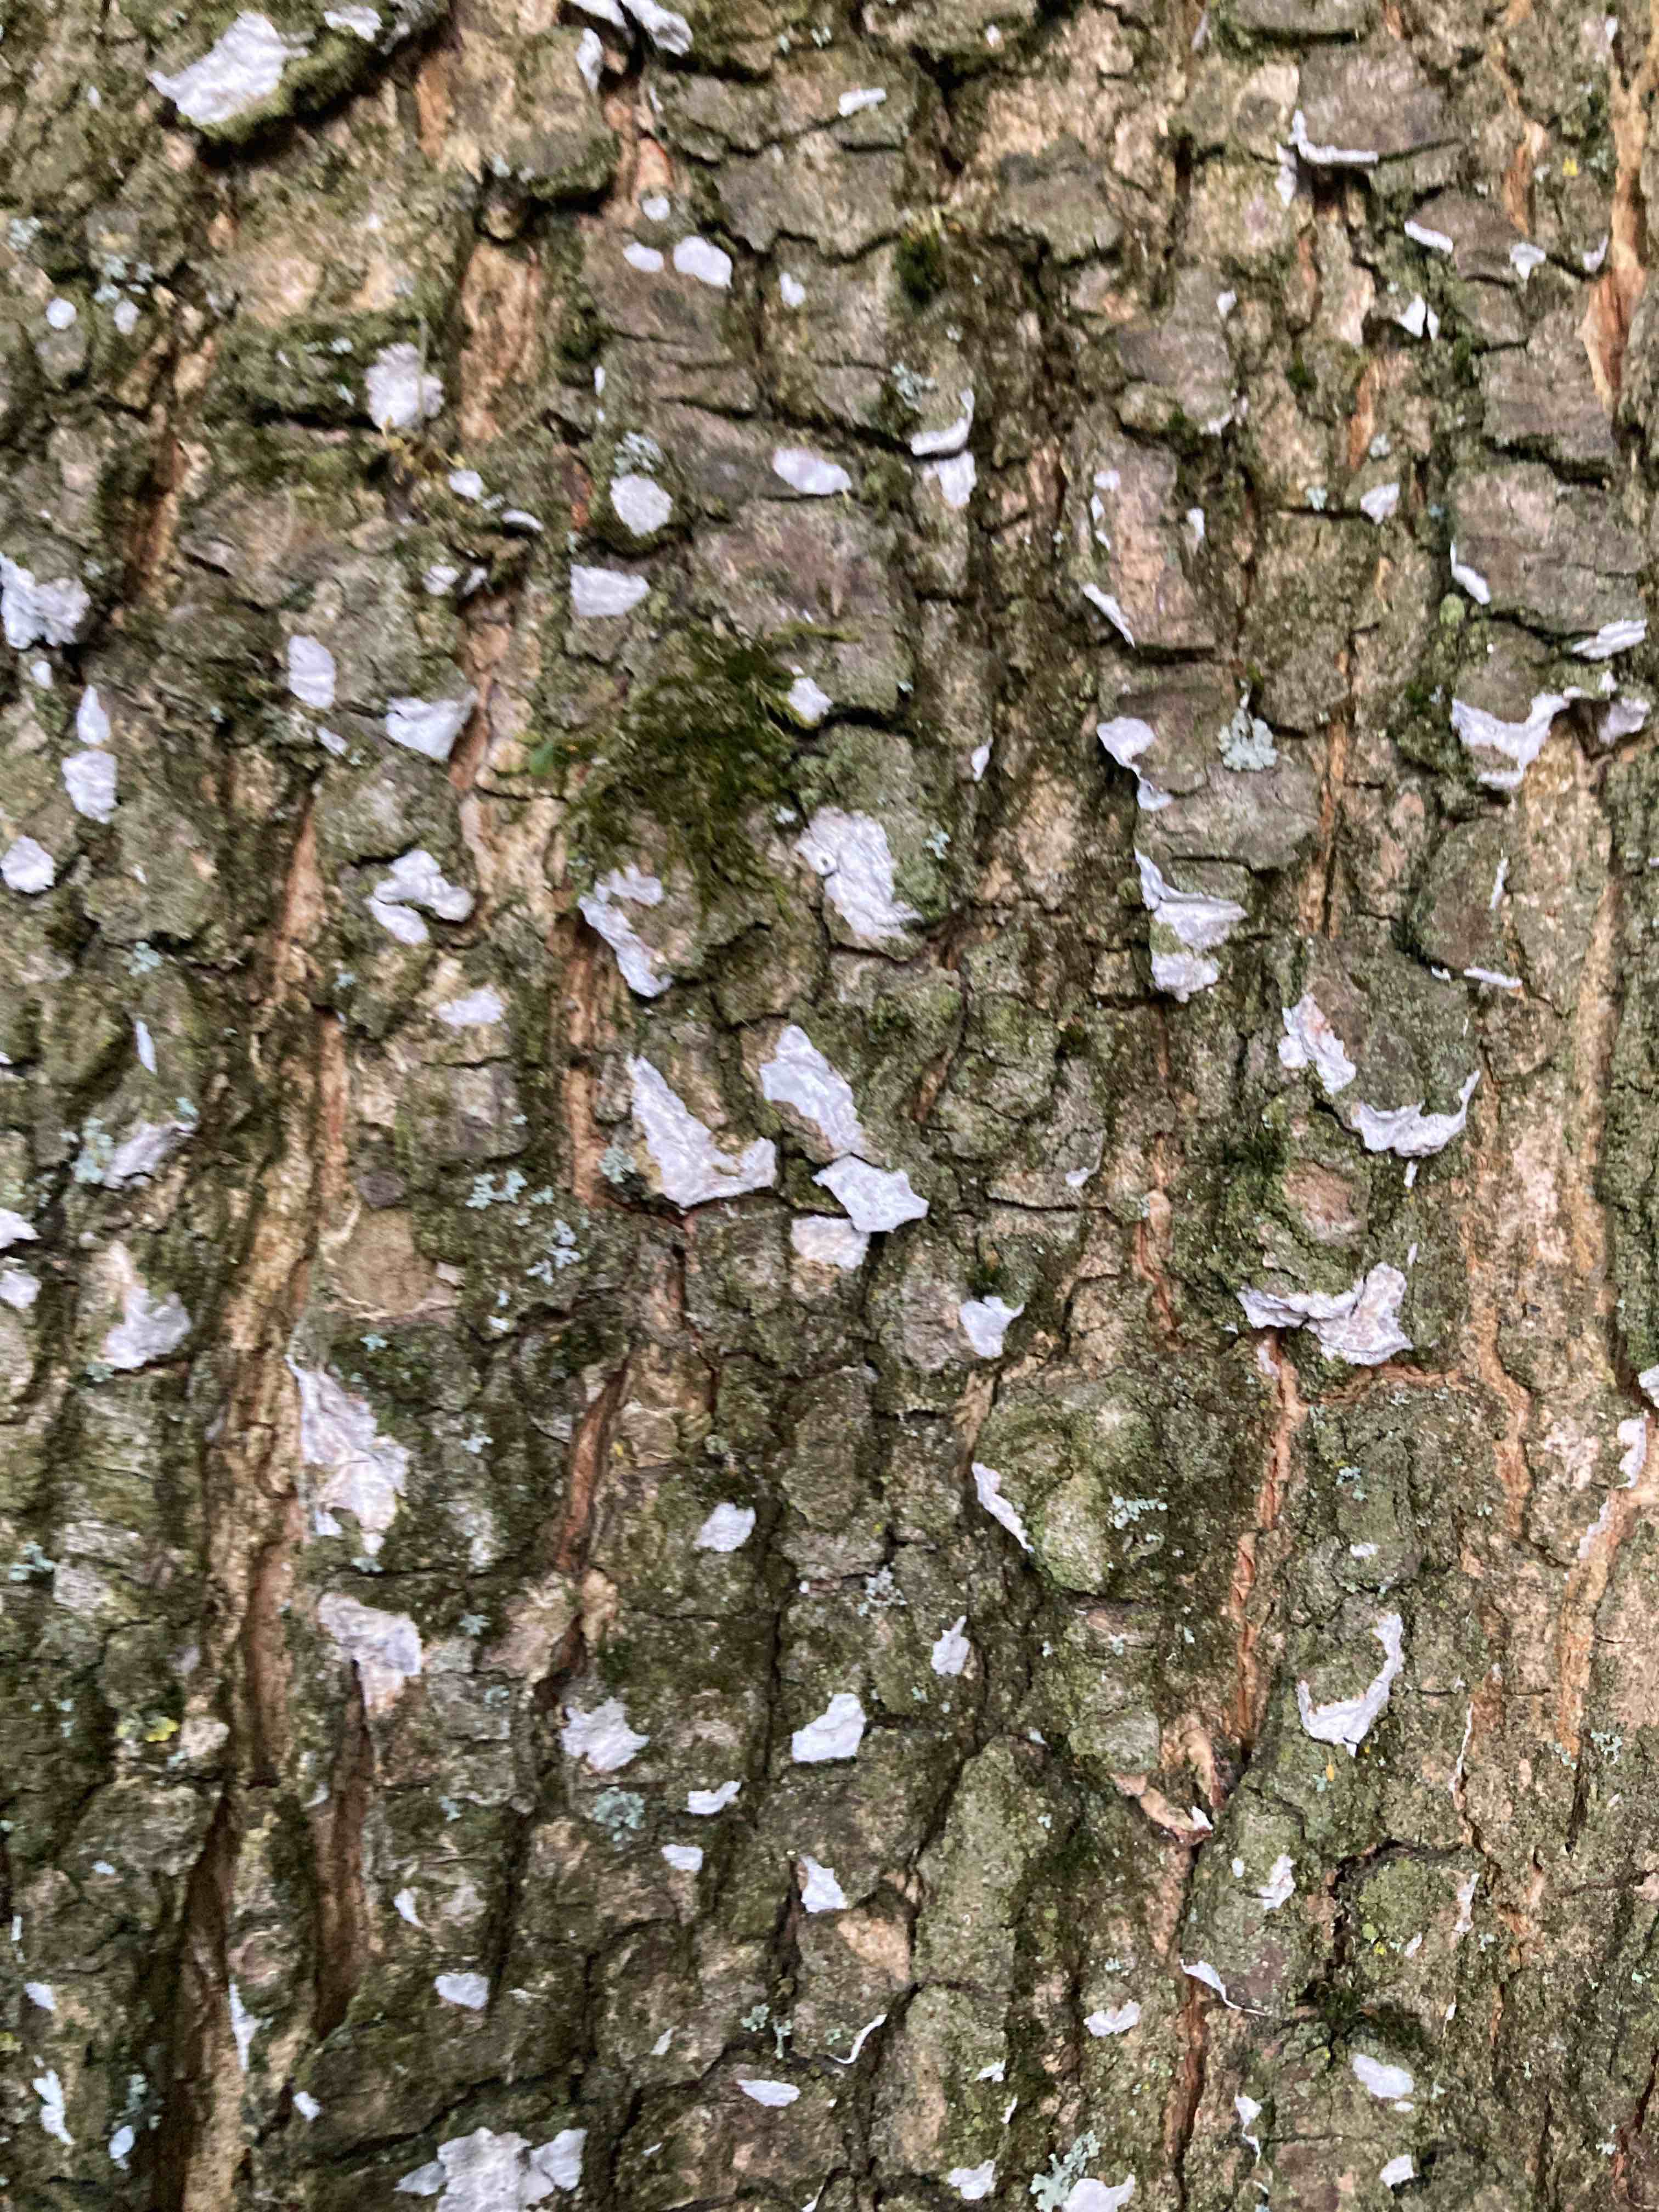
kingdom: Fungi
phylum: Basidiomycota
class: Agaricomycetes
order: Agaricales
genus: Dendrothele
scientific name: Dendrothele acerina
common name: navr-kalkplet
